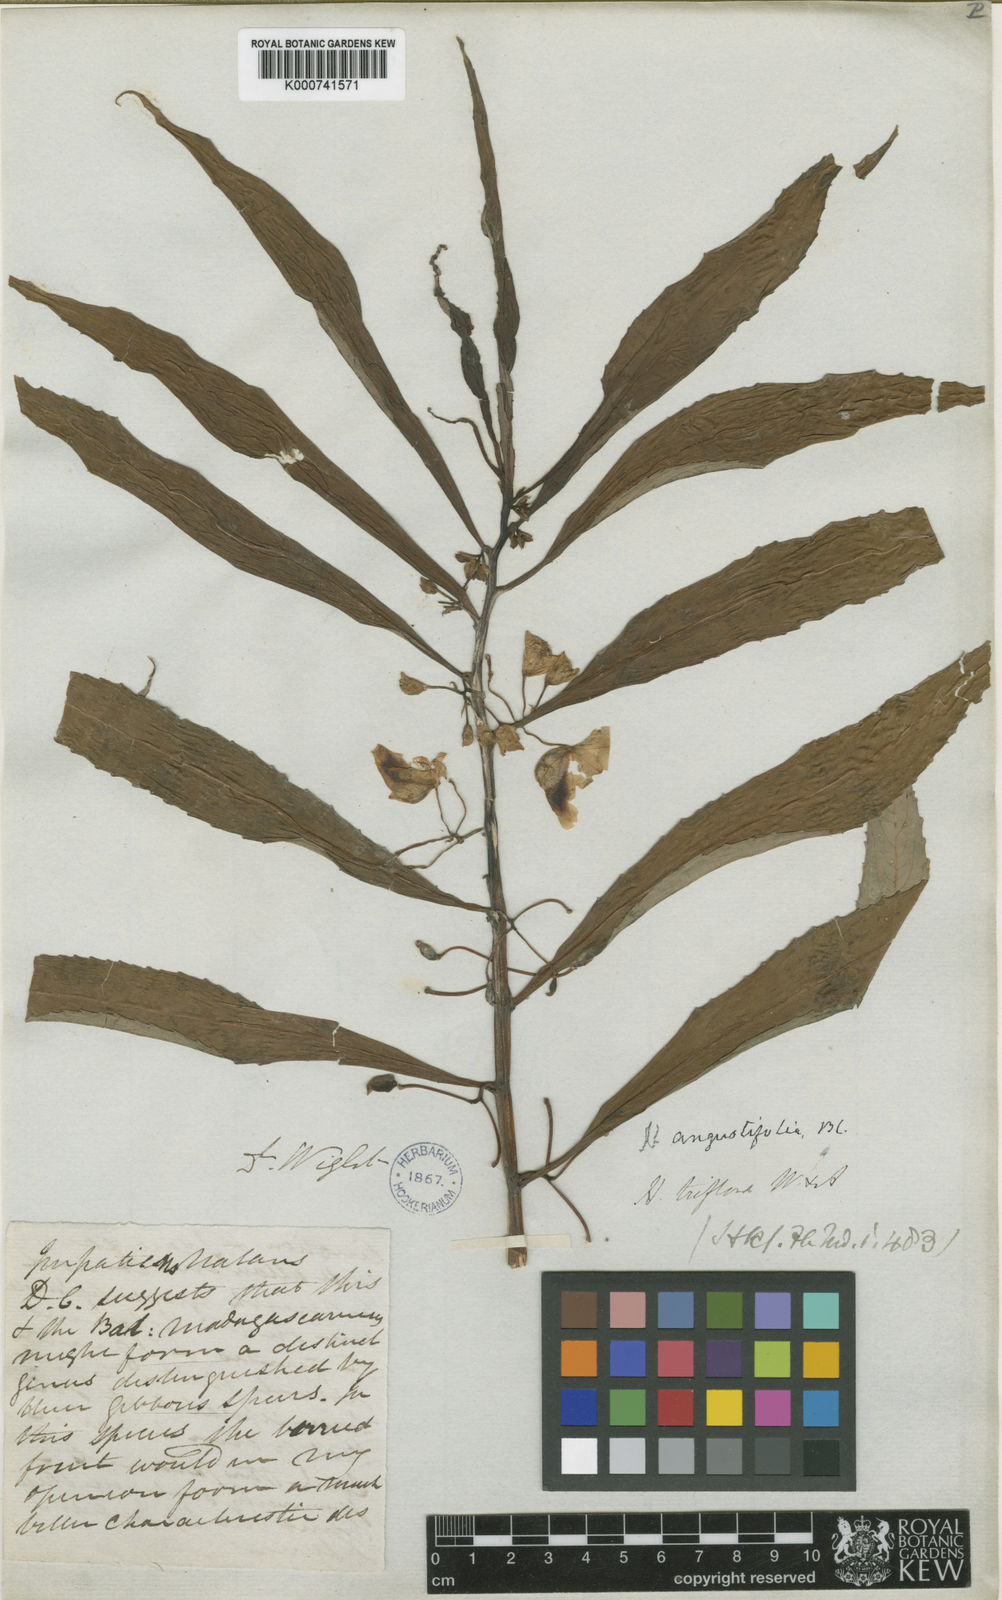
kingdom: Plantae
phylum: Tracheophyta
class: Magnoliopsida
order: Ericales
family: Balsaminaceae
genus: Hydrocera
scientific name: Hydrocera triflora
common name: Marsh henna
